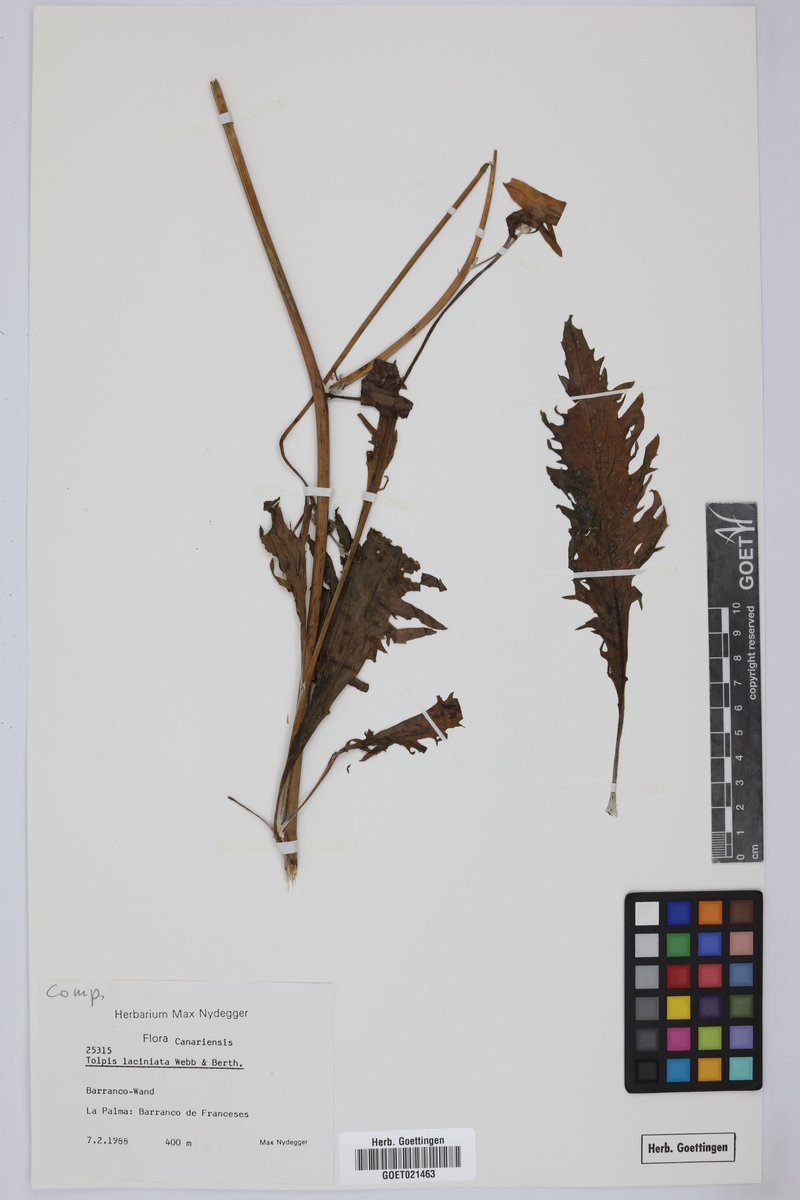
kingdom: Plantae
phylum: Tracheophyta
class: Magnoliopsida
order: Asterales
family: Asteraceae
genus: Tolpis
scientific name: Tolpis laciniata
